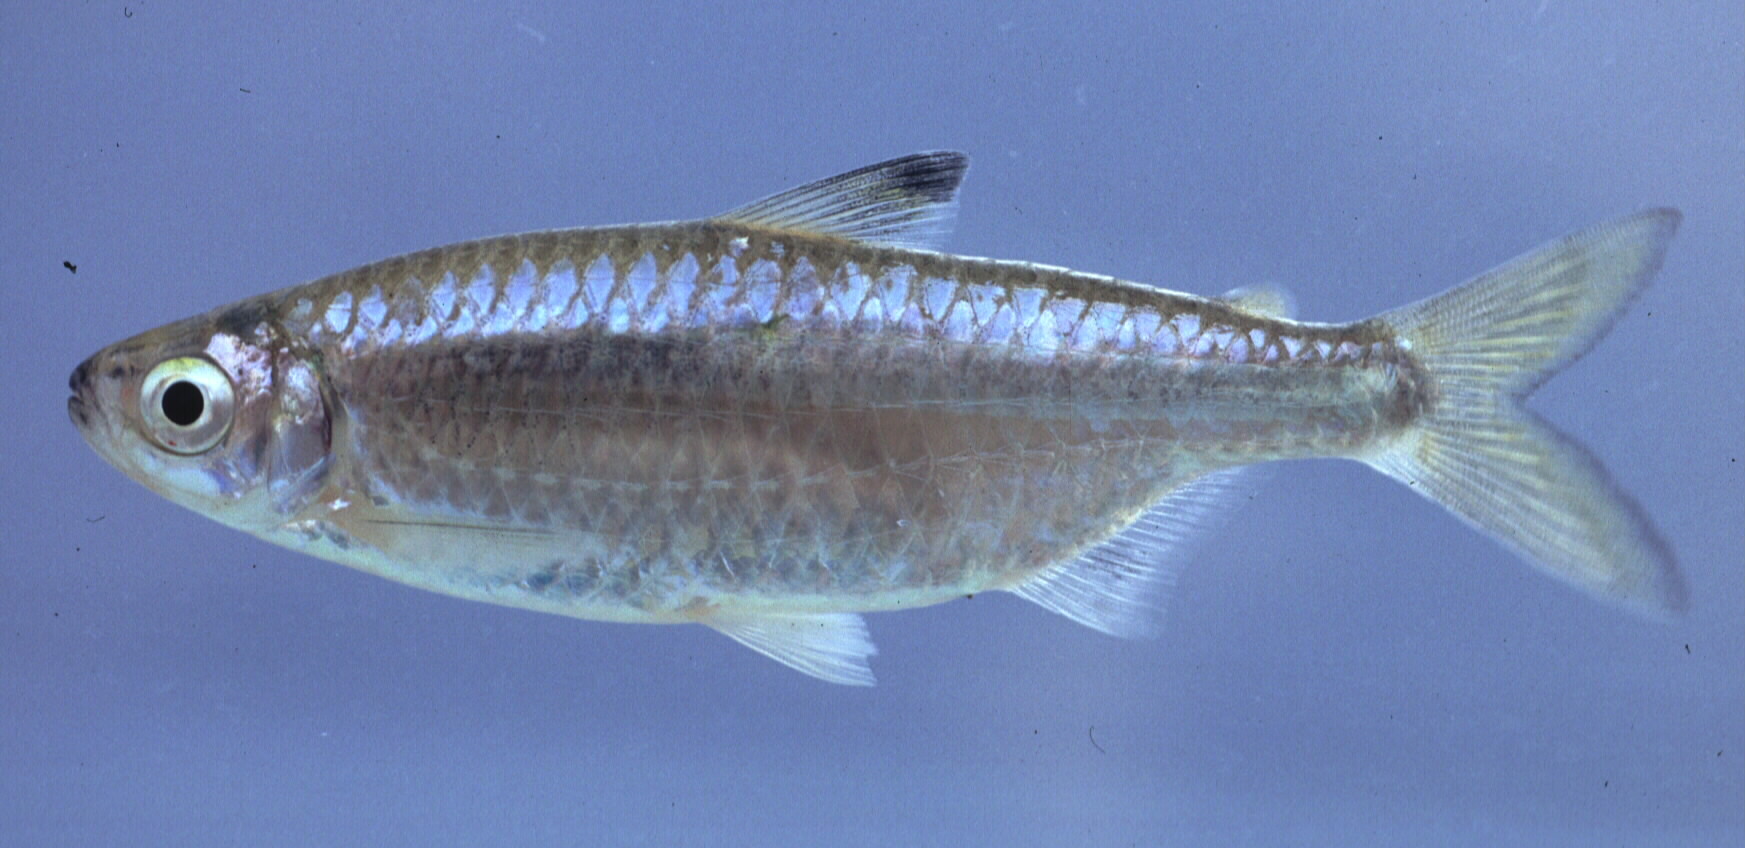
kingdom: Animalia
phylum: Chordata
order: Characiformes
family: Alestidae
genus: Micralestes
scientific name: Micralestes acutidens
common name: Silver robber
